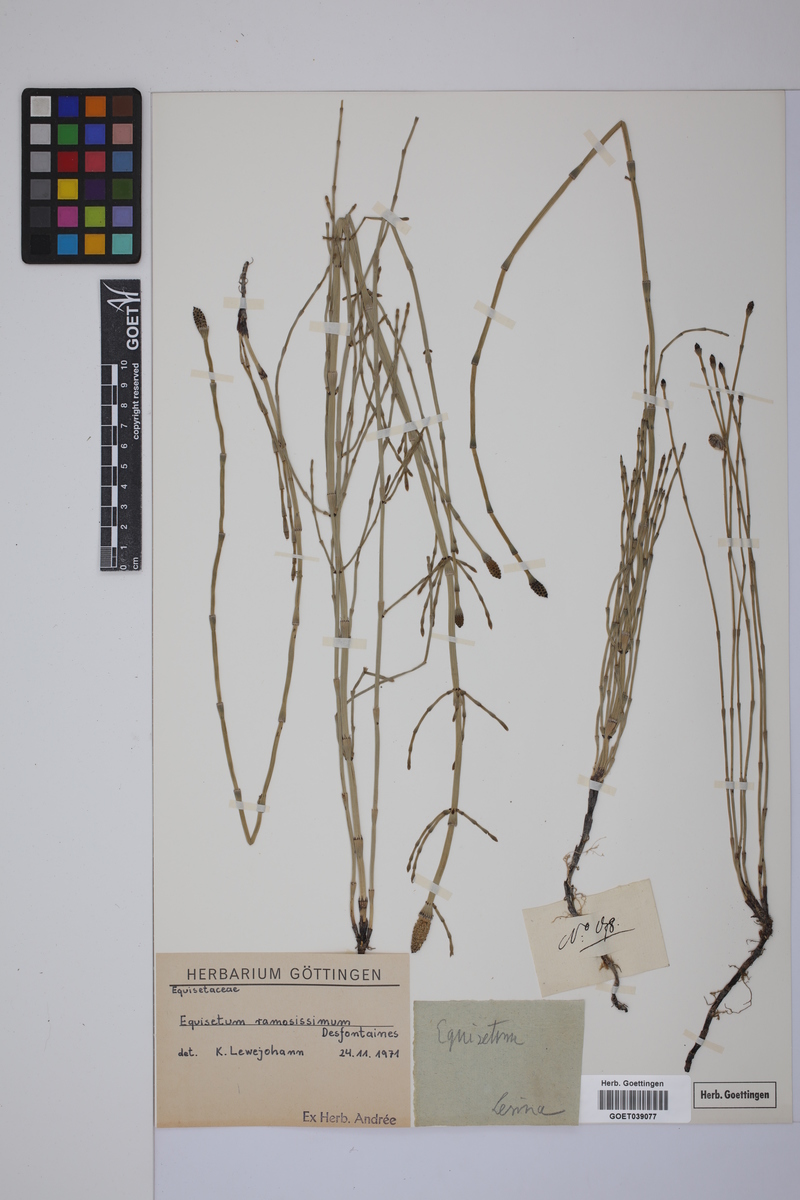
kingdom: Plantae
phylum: Tracheophyta
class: Polypodiopsida
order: Equisetales
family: Equisetaceae
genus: Equisetum
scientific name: Equisetum giganteum
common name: Giant horsetail
